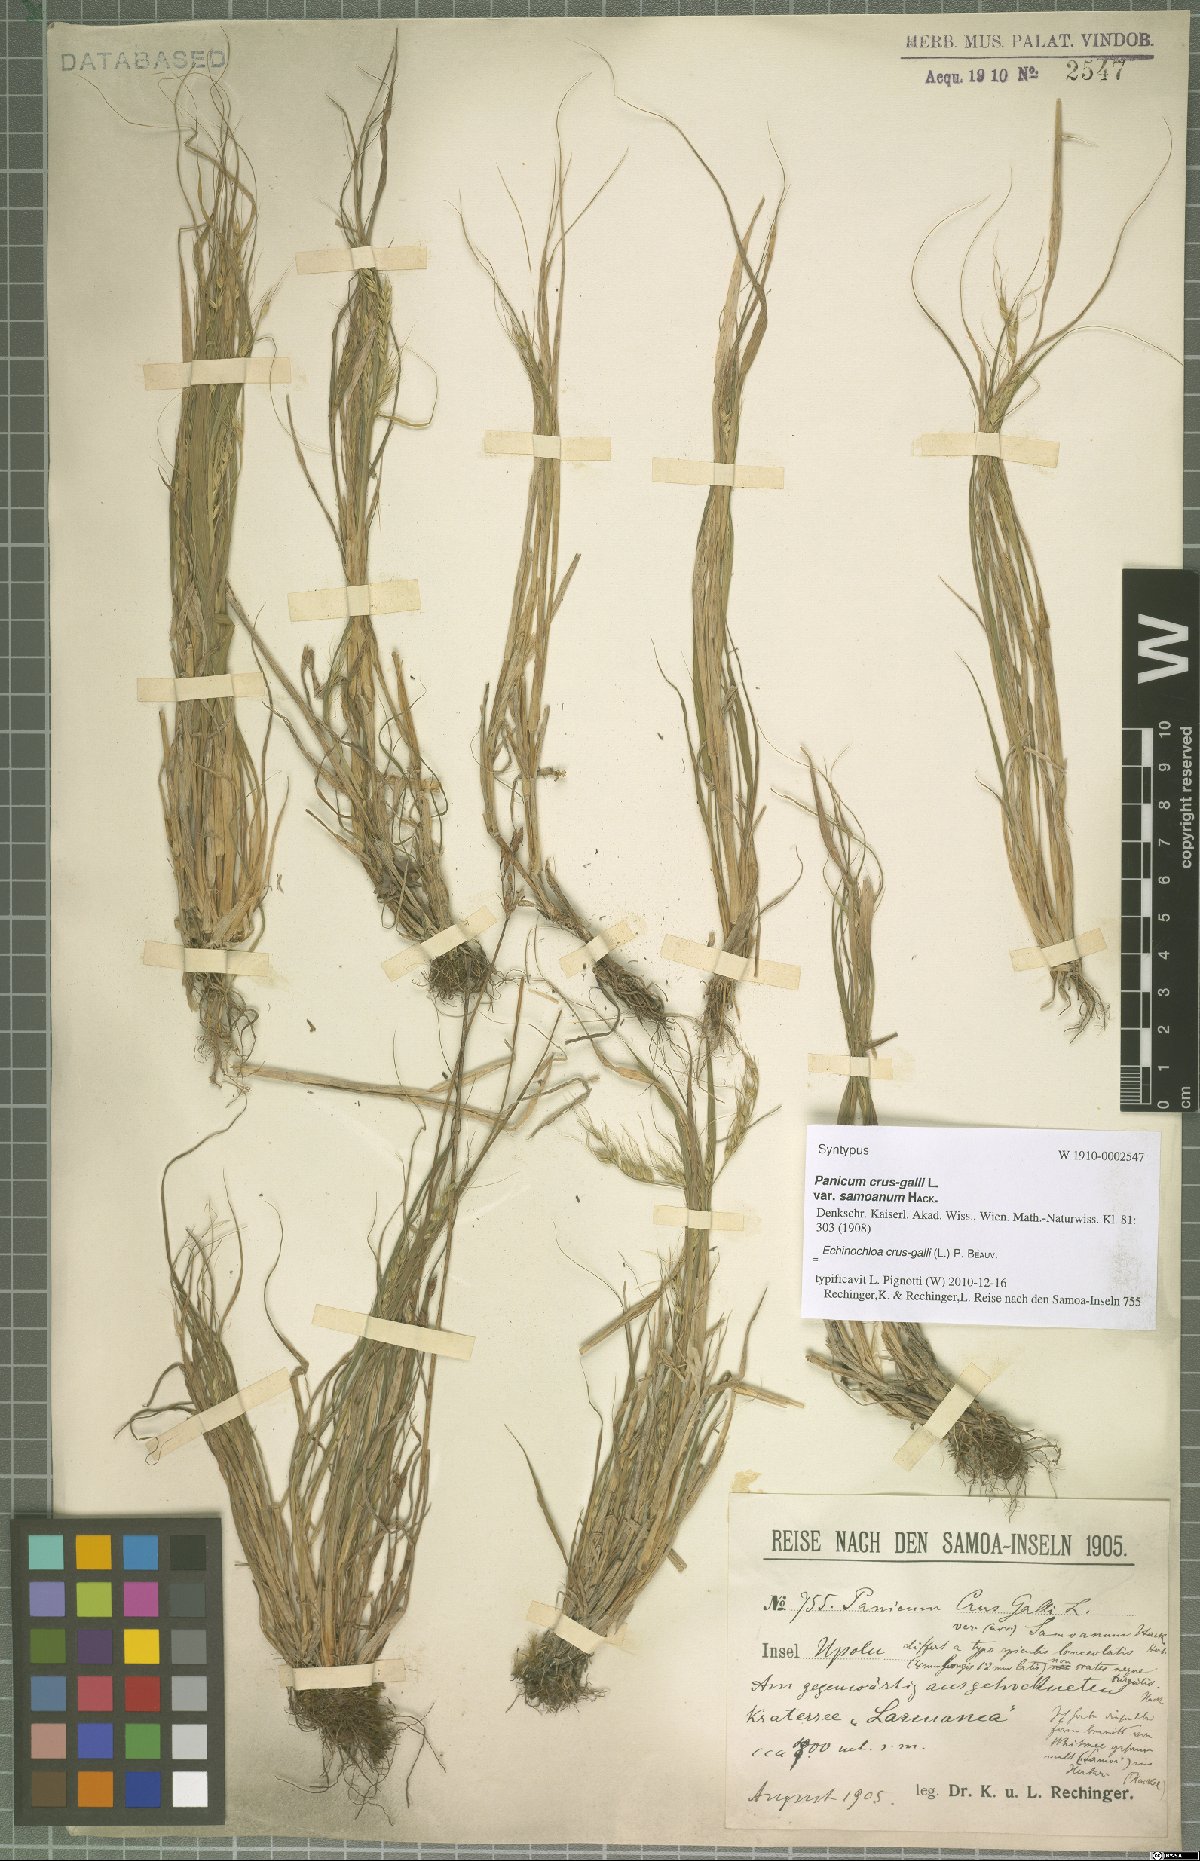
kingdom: Plantae
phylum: Tracheophyta
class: Liliopsida
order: Poales
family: Poaceae
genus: Echinochloa
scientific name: Echinochloa crus-galli
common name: Cockspur
